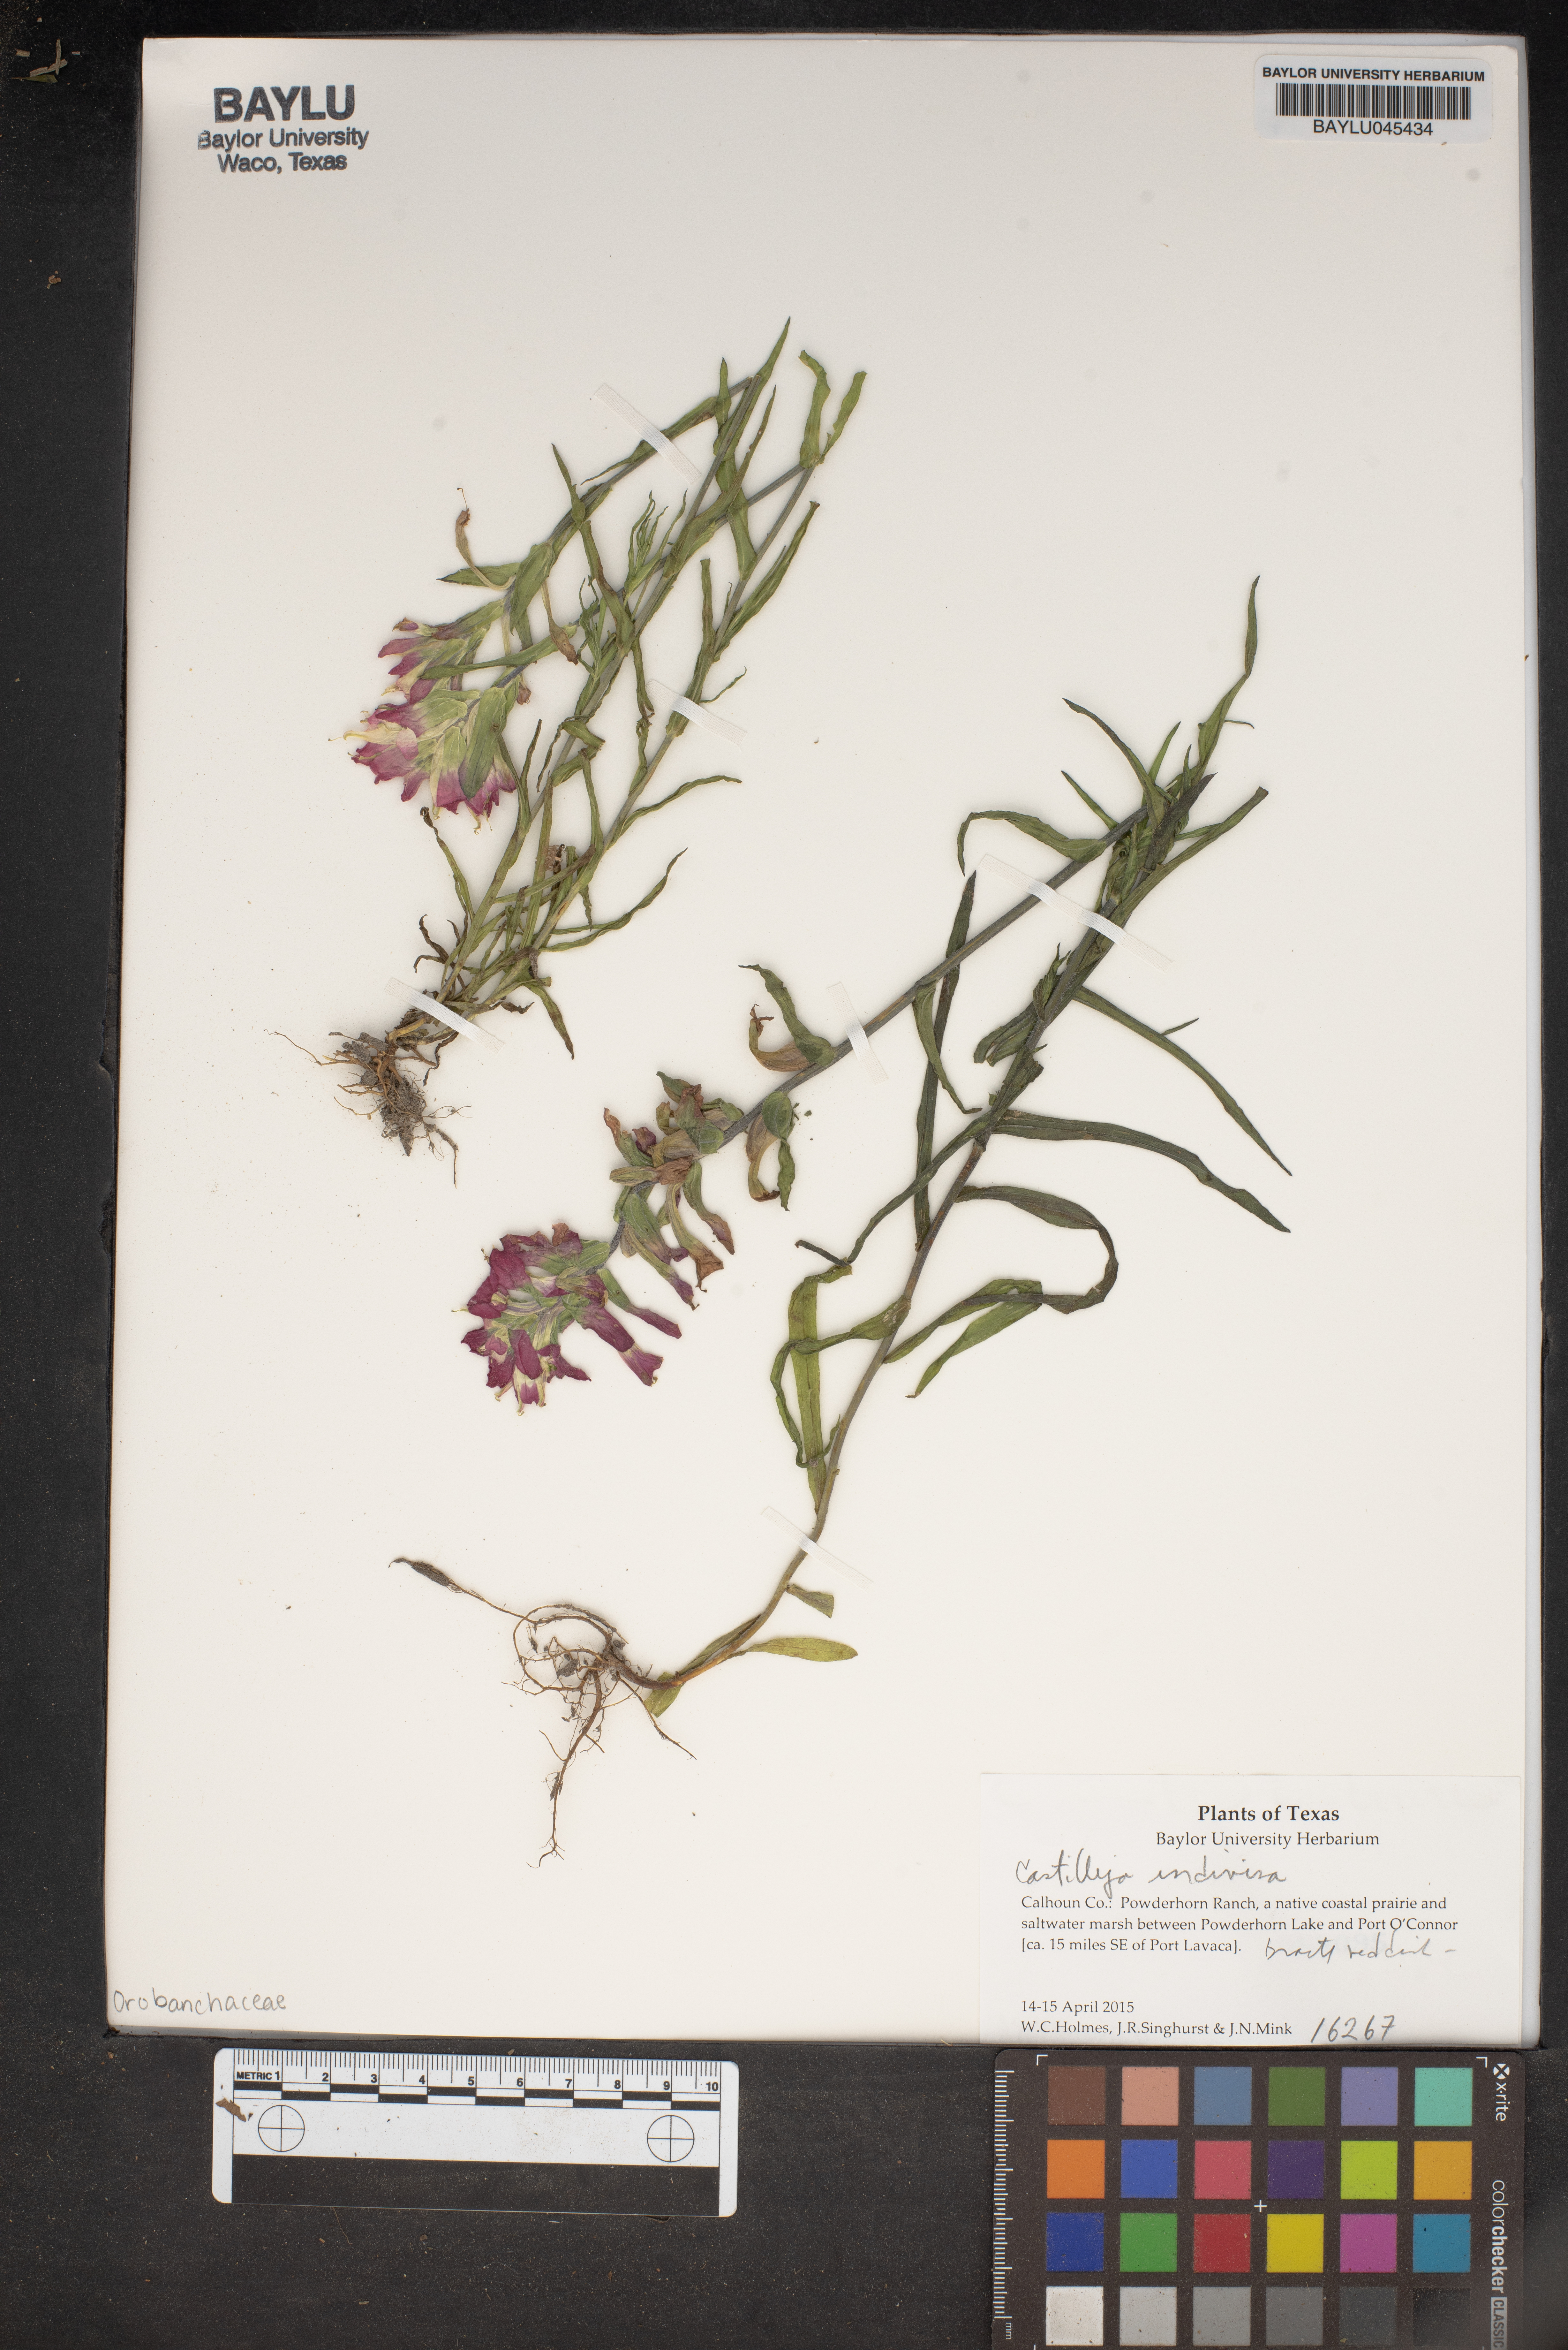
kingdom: Plantae
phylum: Tracheophyta
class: Magnoliopsida
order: Lamiales
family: Orobanchaceae
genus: Castilleja
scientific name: Castilleja indivisa
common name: Texas paintbrush
